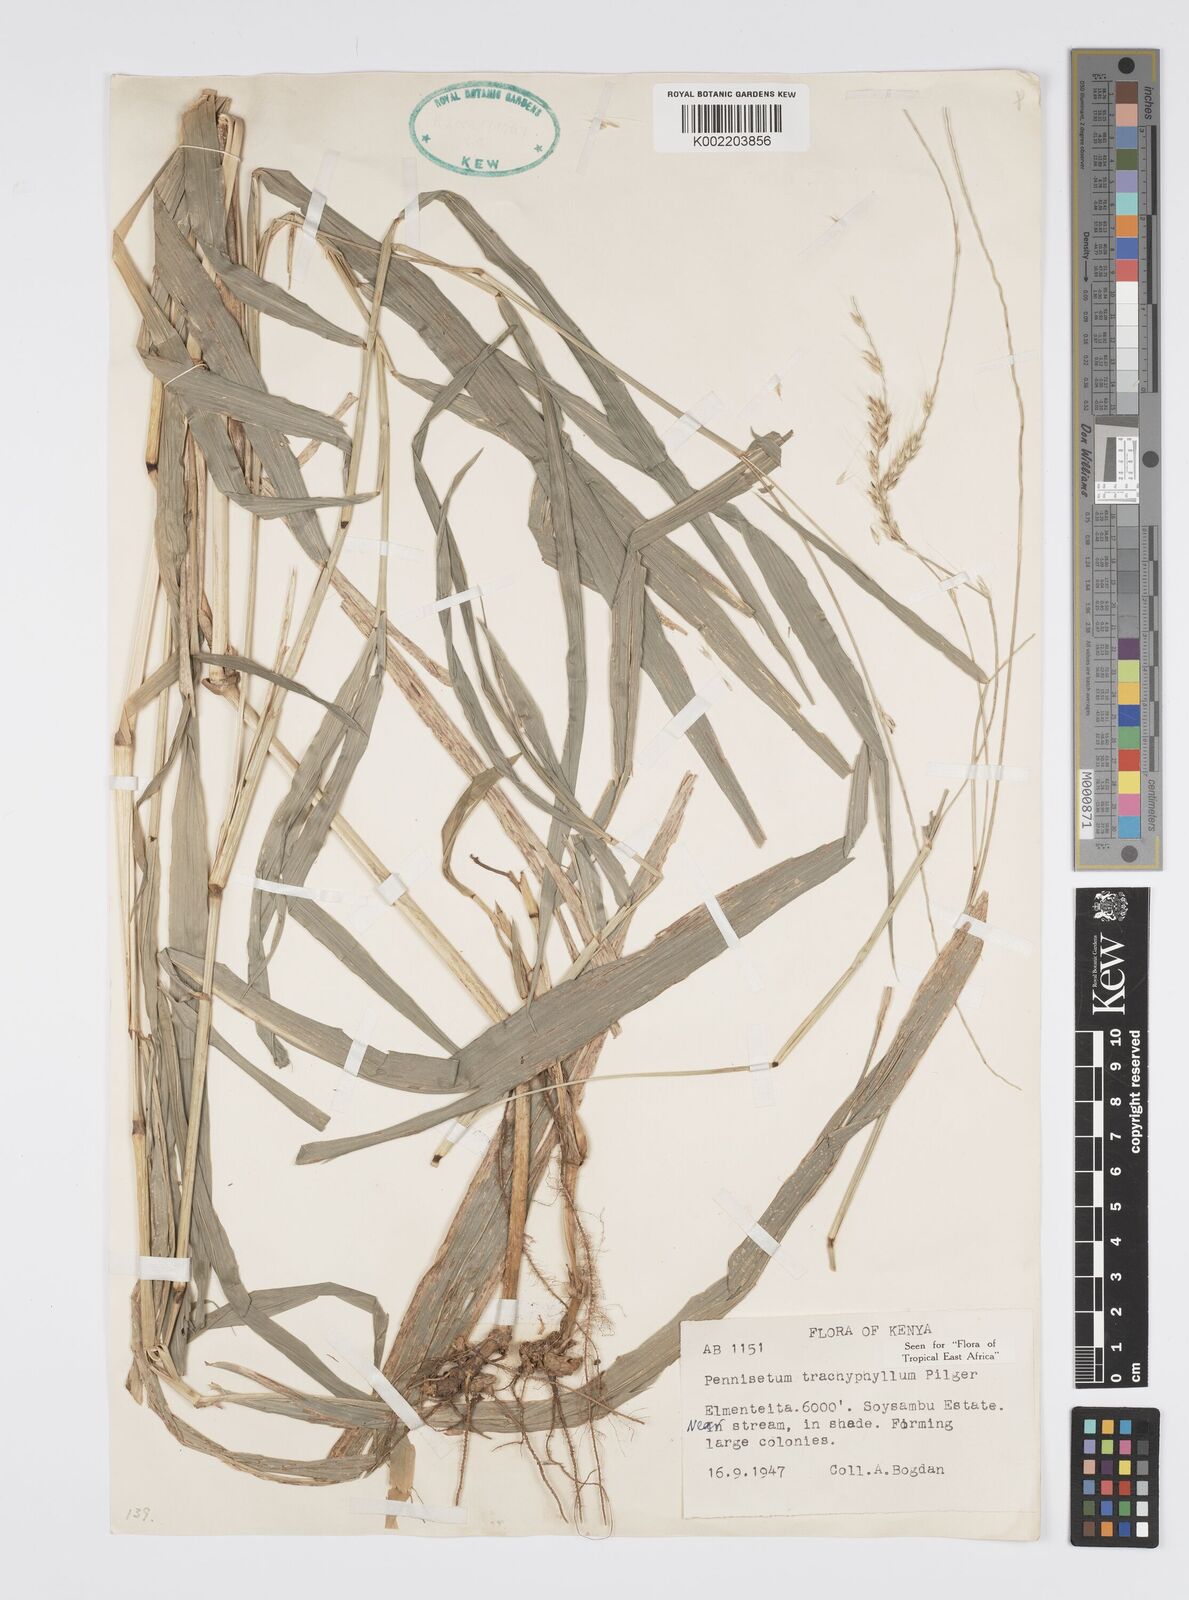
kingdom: Plantae
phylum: Tracheophyta
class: Liliopsida
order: Poales
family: Poaceae
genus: Cenchrus
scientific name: Cenchrus trachyphyllus
